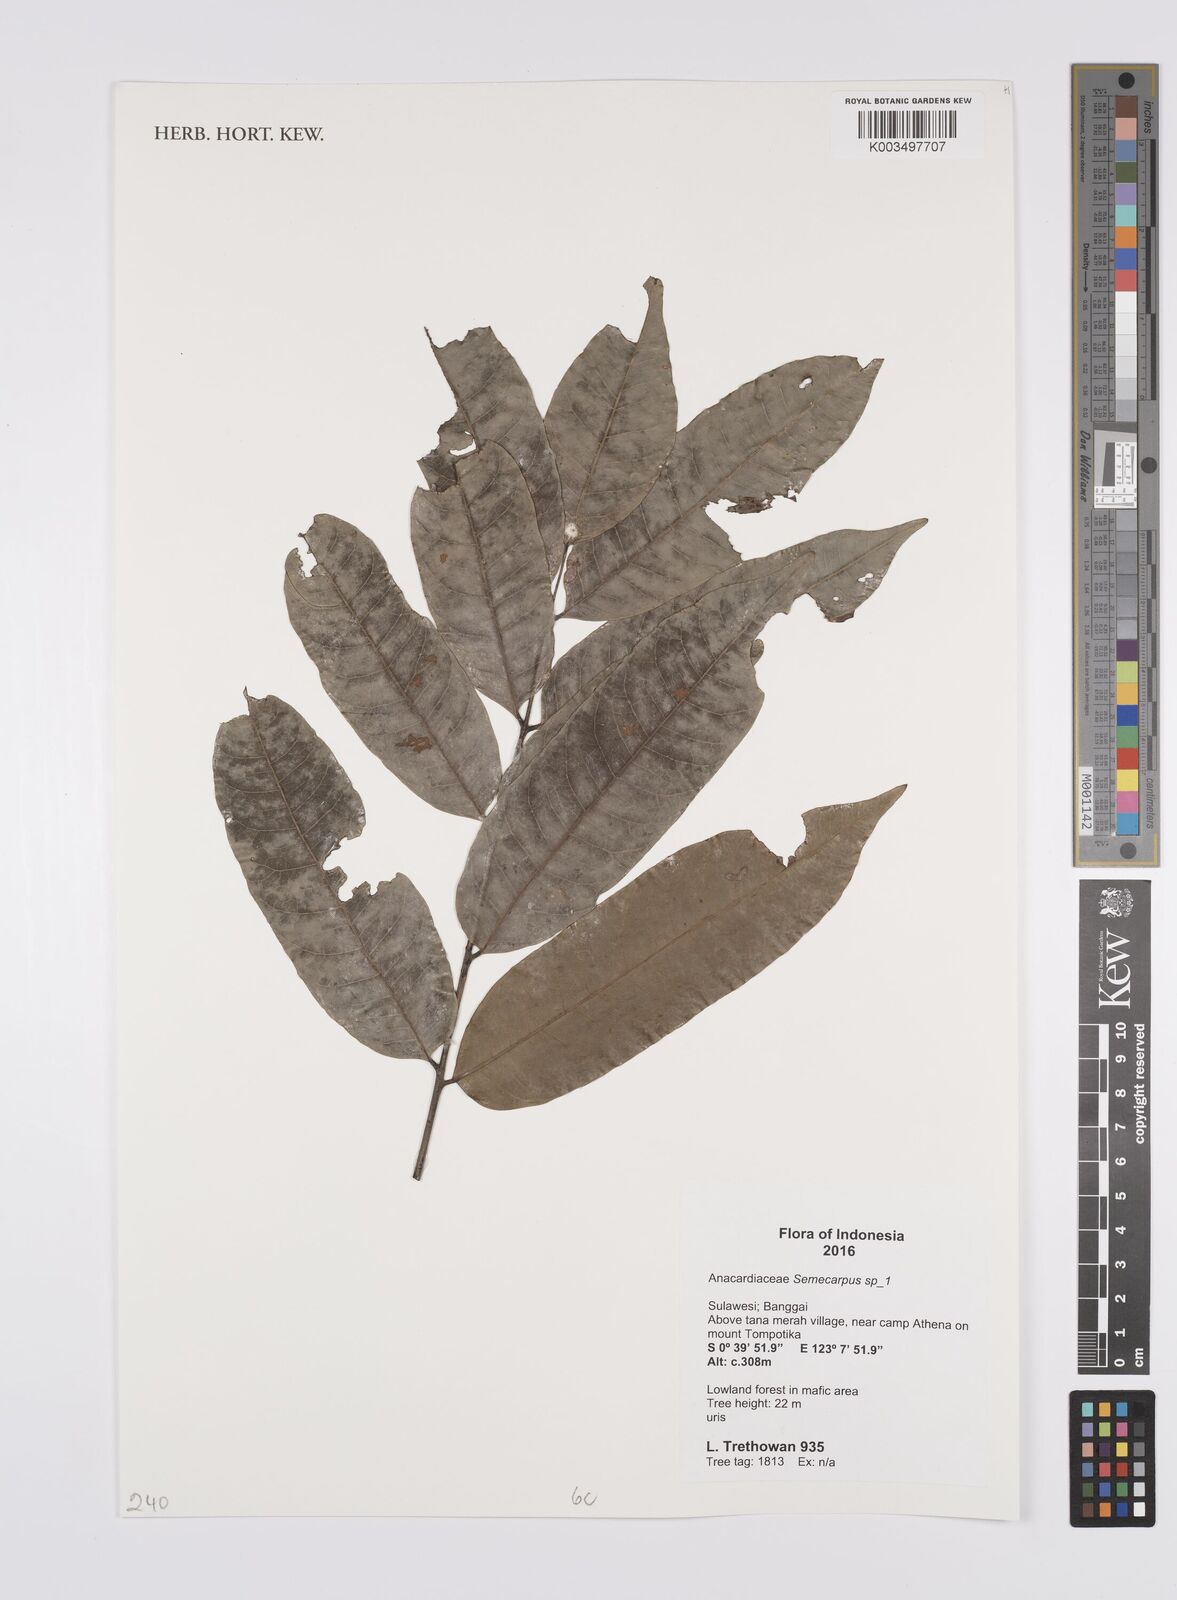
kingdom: Plantae
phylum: Tracheophyta
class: Magnoliopsida
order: Sapindales
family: Anacardiaceae
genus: Semecarpus
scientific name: Semecarpus
